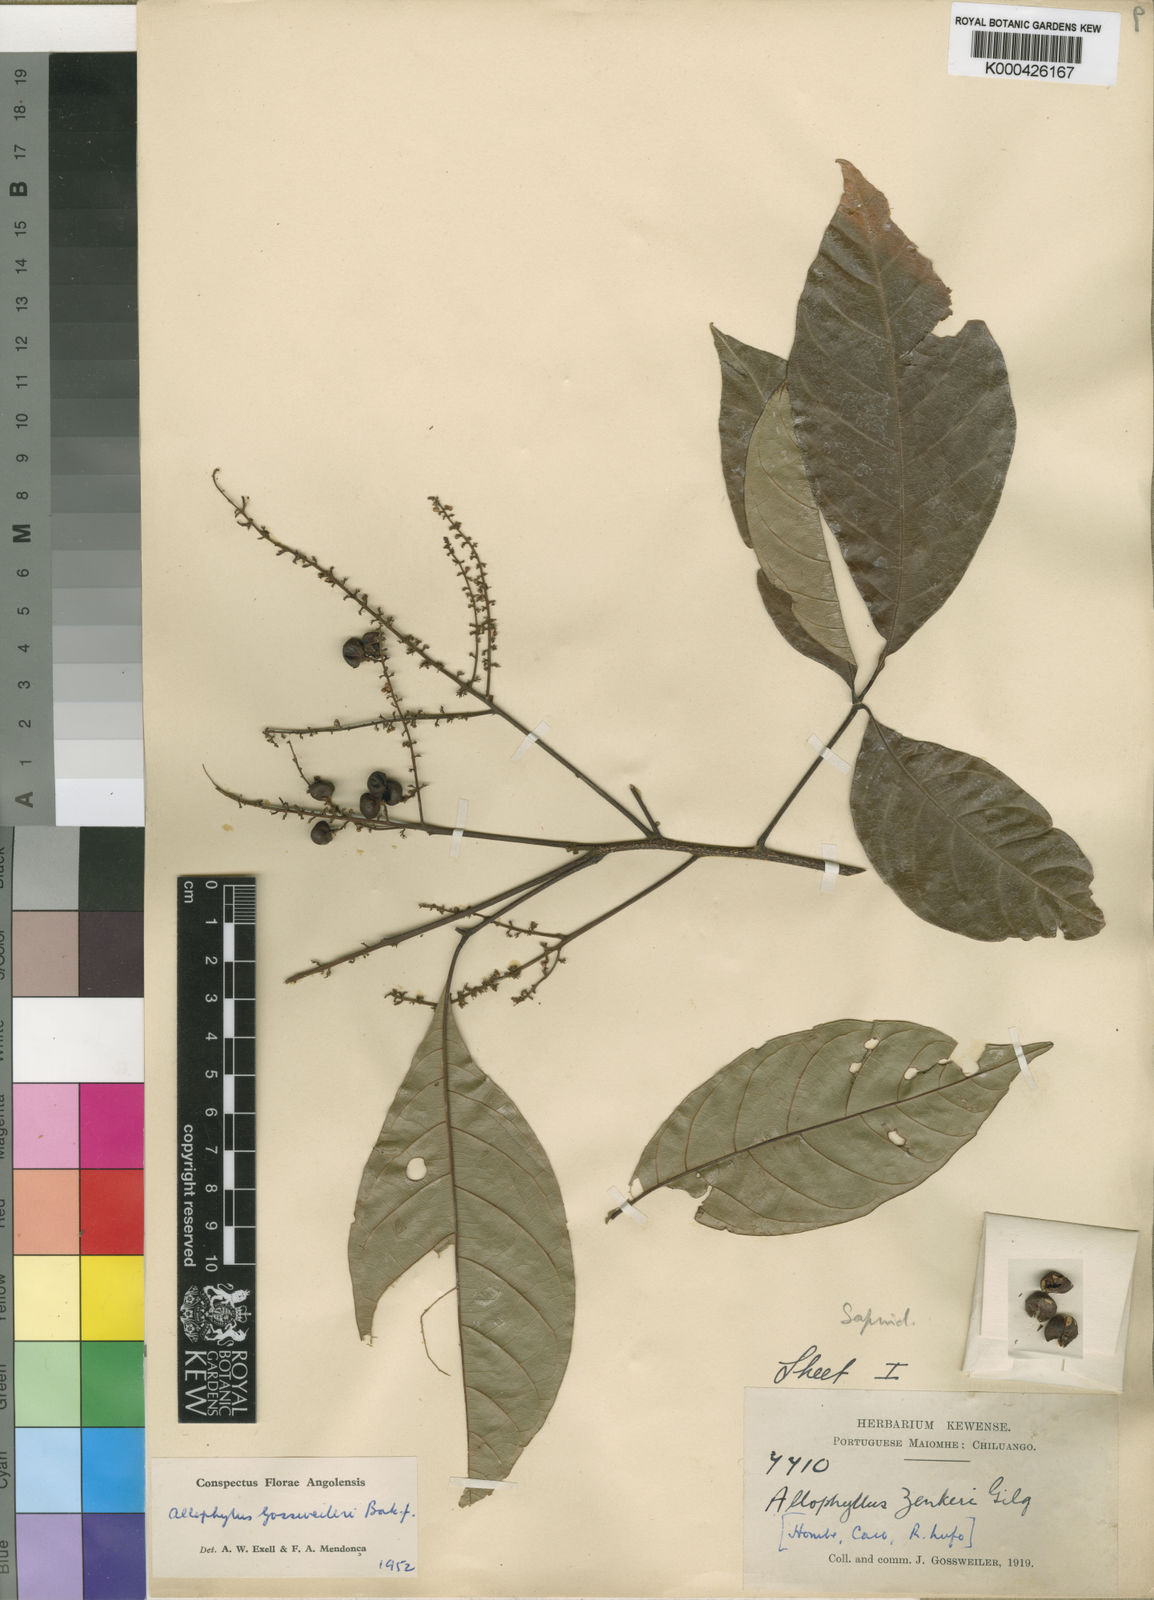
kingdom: Plantae
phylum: Tracheophyta
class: Magnoliopsida
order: Sapindales
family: Sapindaceae
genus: Allophylus
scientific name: Allophylus gossweileri
